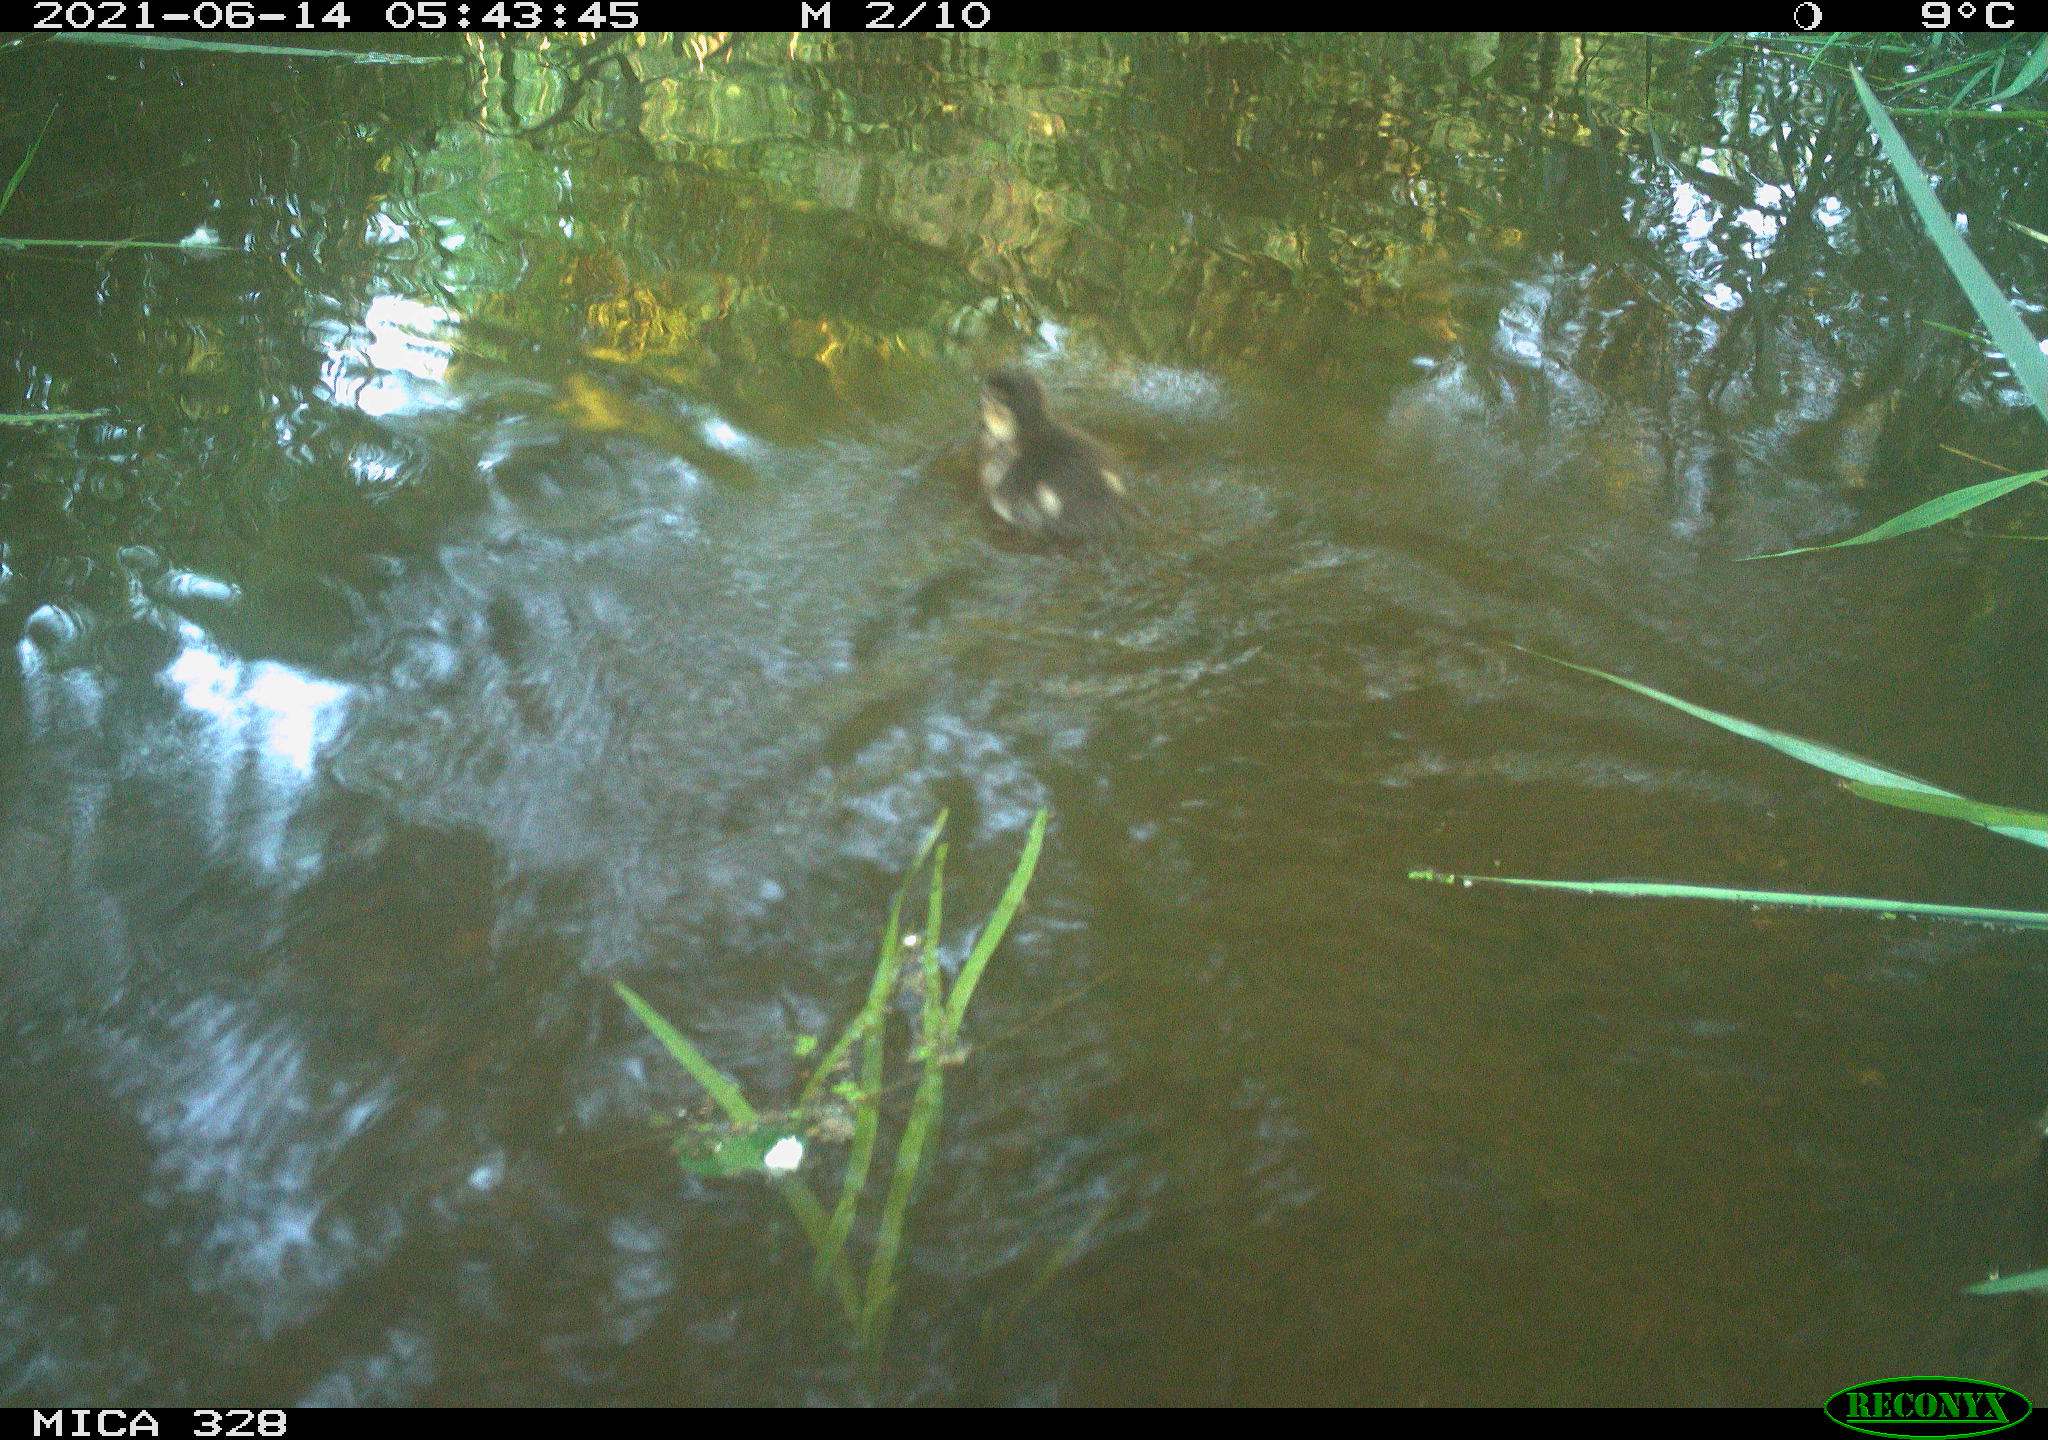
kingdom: Animalia
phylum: Chordata
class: Aves
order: Anseriformes
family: Anatidae
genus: Aix
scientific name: Aix galericulata
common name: Mandarin duck
